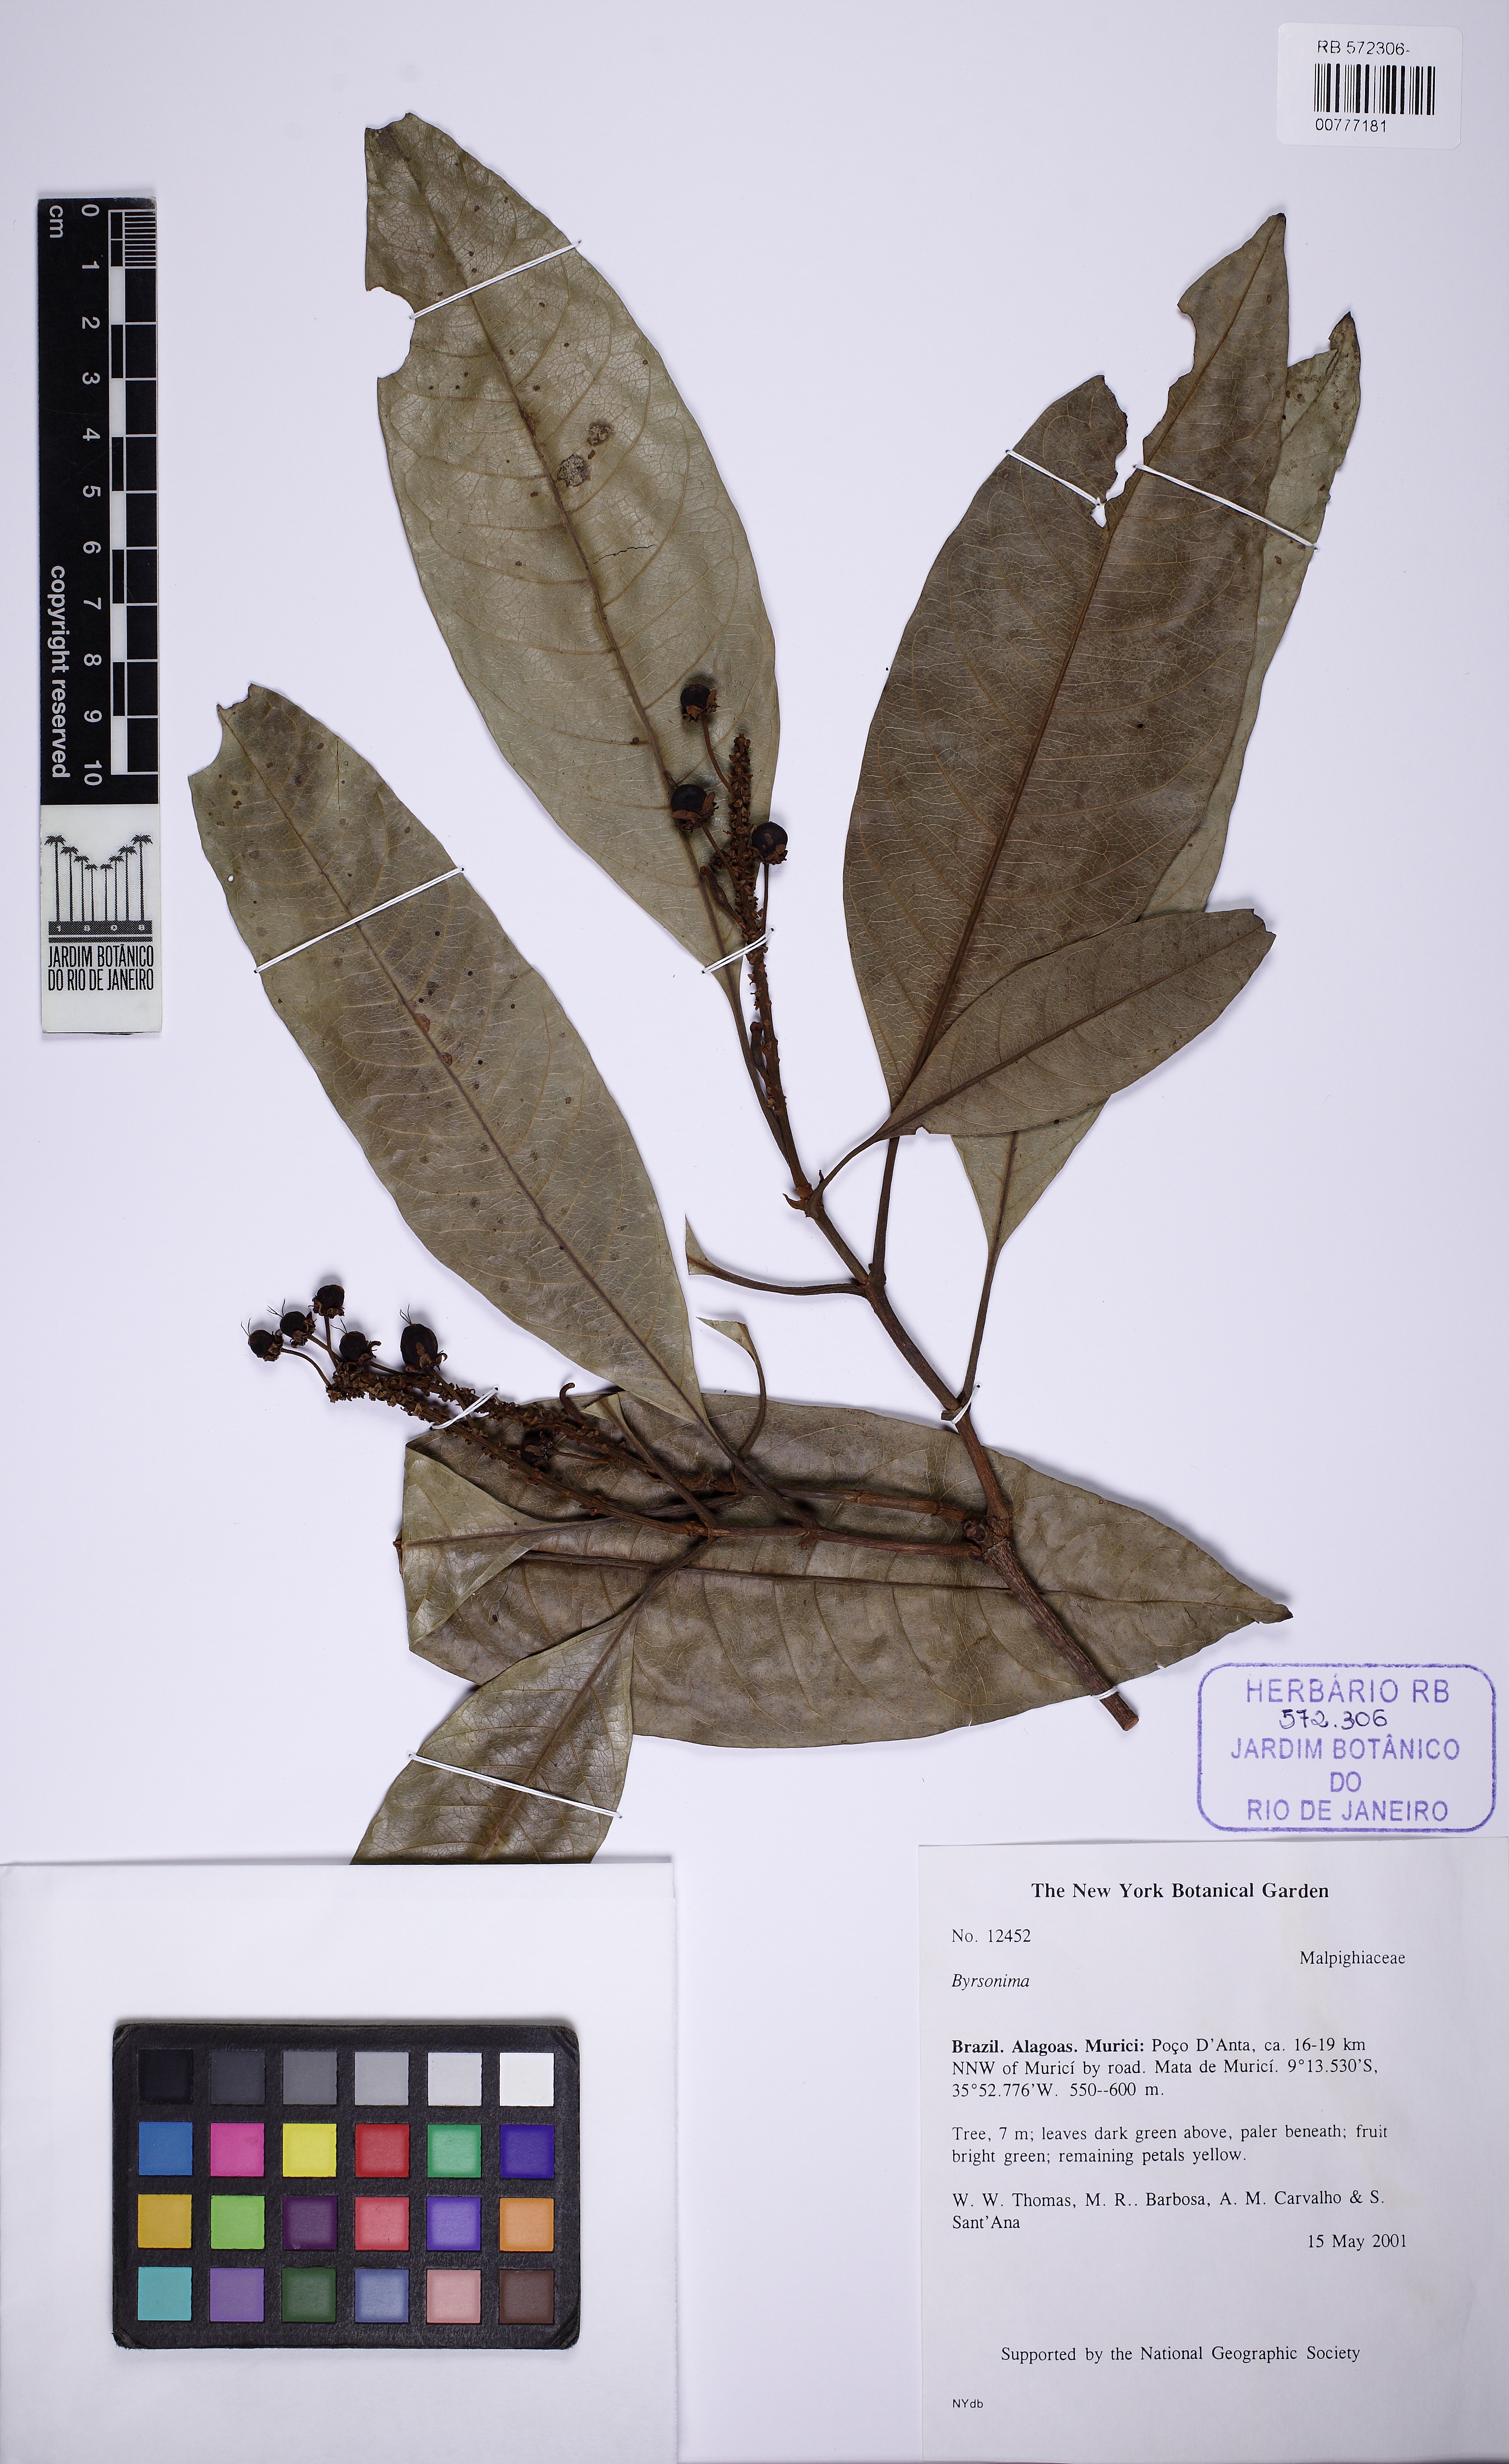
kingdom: Plantae
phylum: Tracheophyta
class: Magnoliopsida
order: Malpighiales
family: Malpighiaceae
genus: Byrsonima
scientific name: Byrsonima crispa
